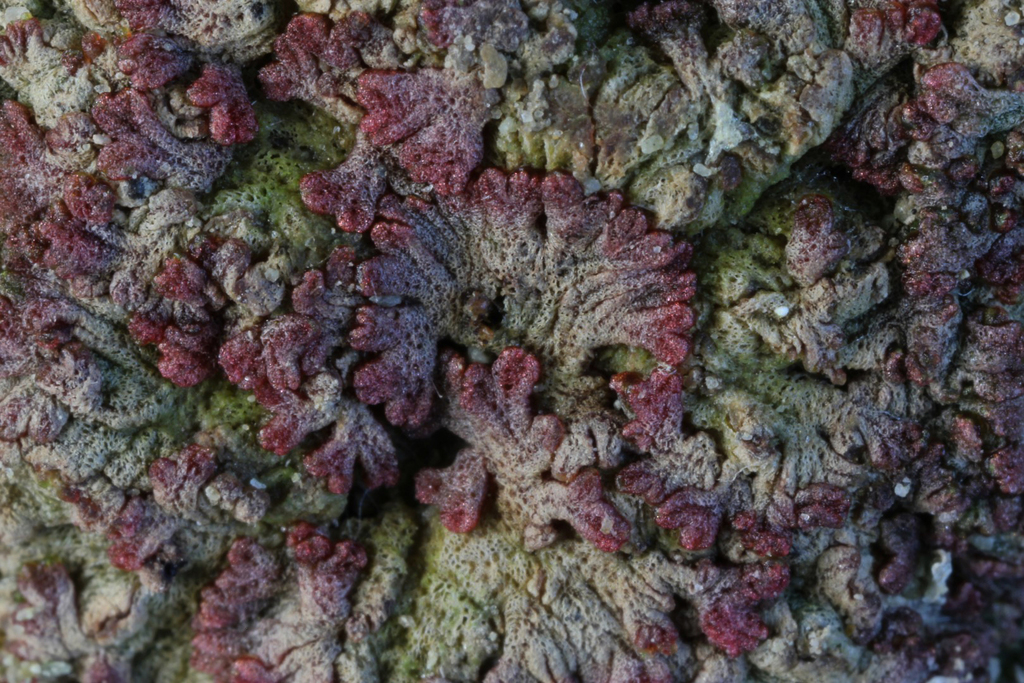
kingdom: Plantae
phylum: Marchantiophyta
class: Marchantiopsida
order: Marchantiales
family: Ricciaceae
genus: Riccia
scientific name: Riccia cavernosa
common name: Cavernous crystalwort
